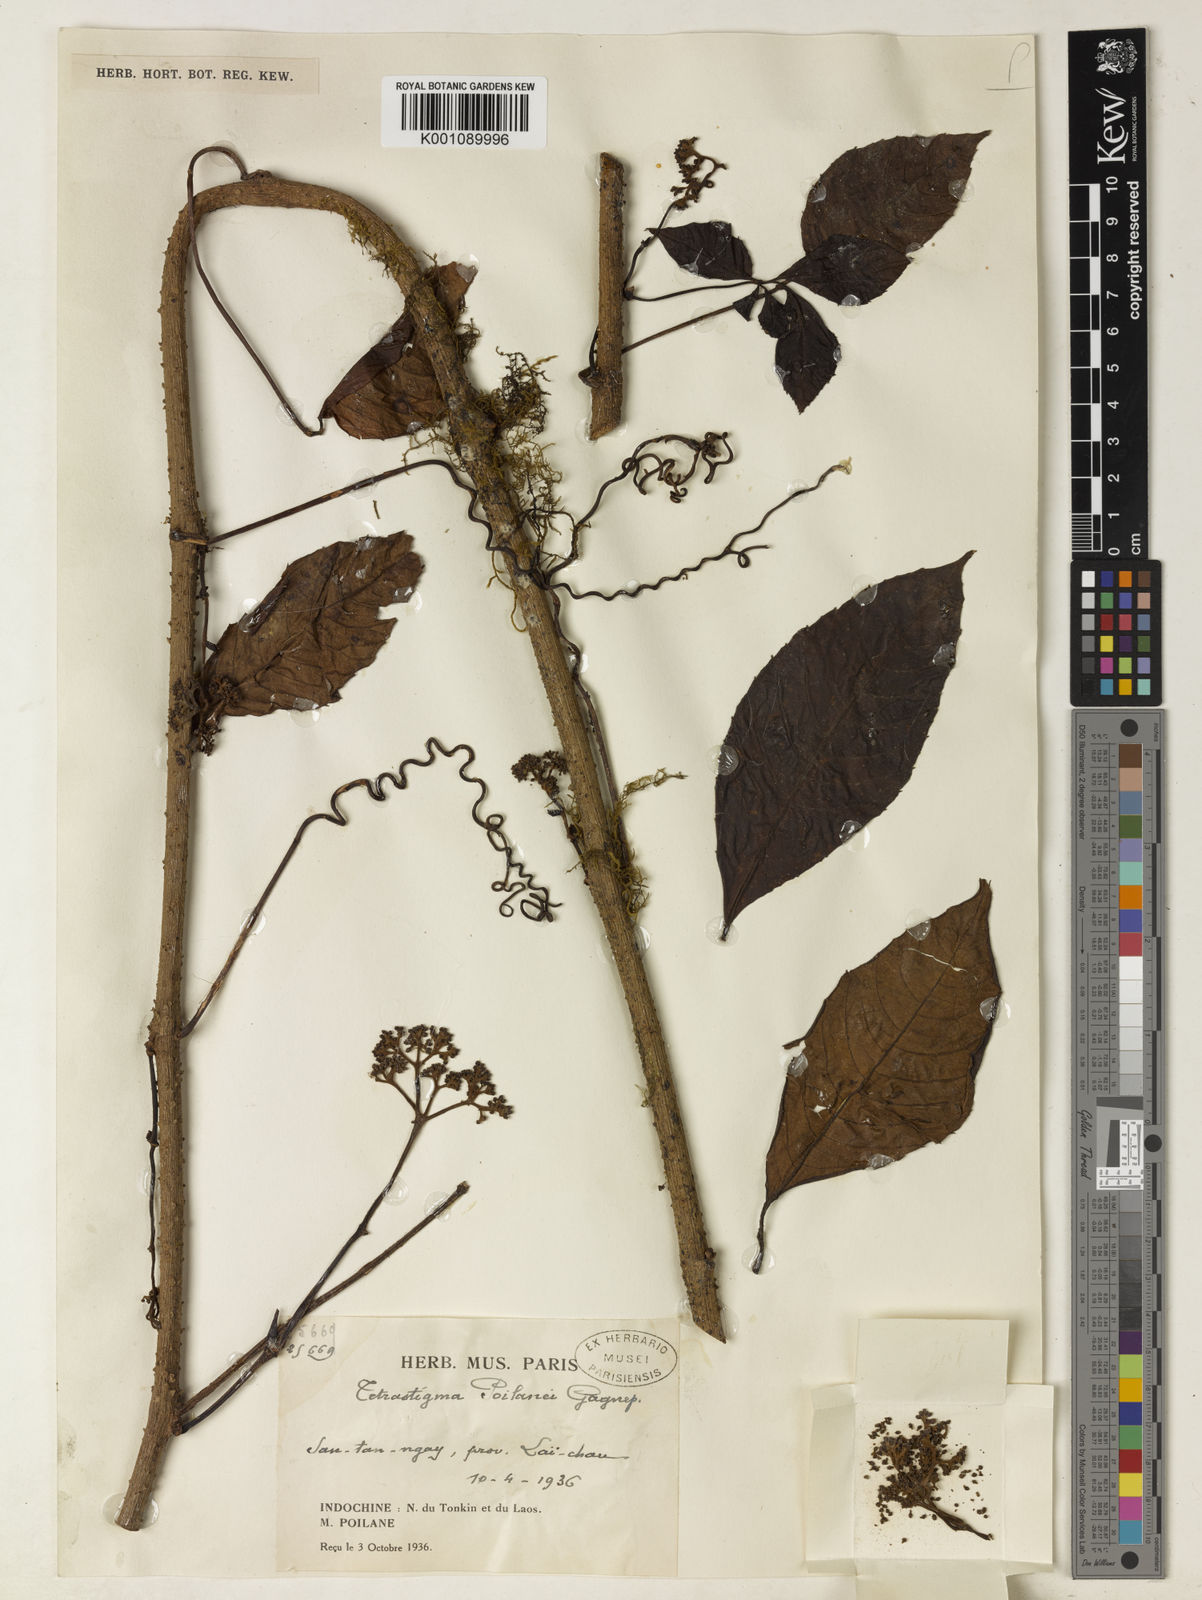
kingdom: Plantae
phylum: Tracheophyta
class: Magnoliopsida
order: Vitales
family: Vitaceae
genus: Tetrastigma
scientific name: Tetrastigma poilanei
